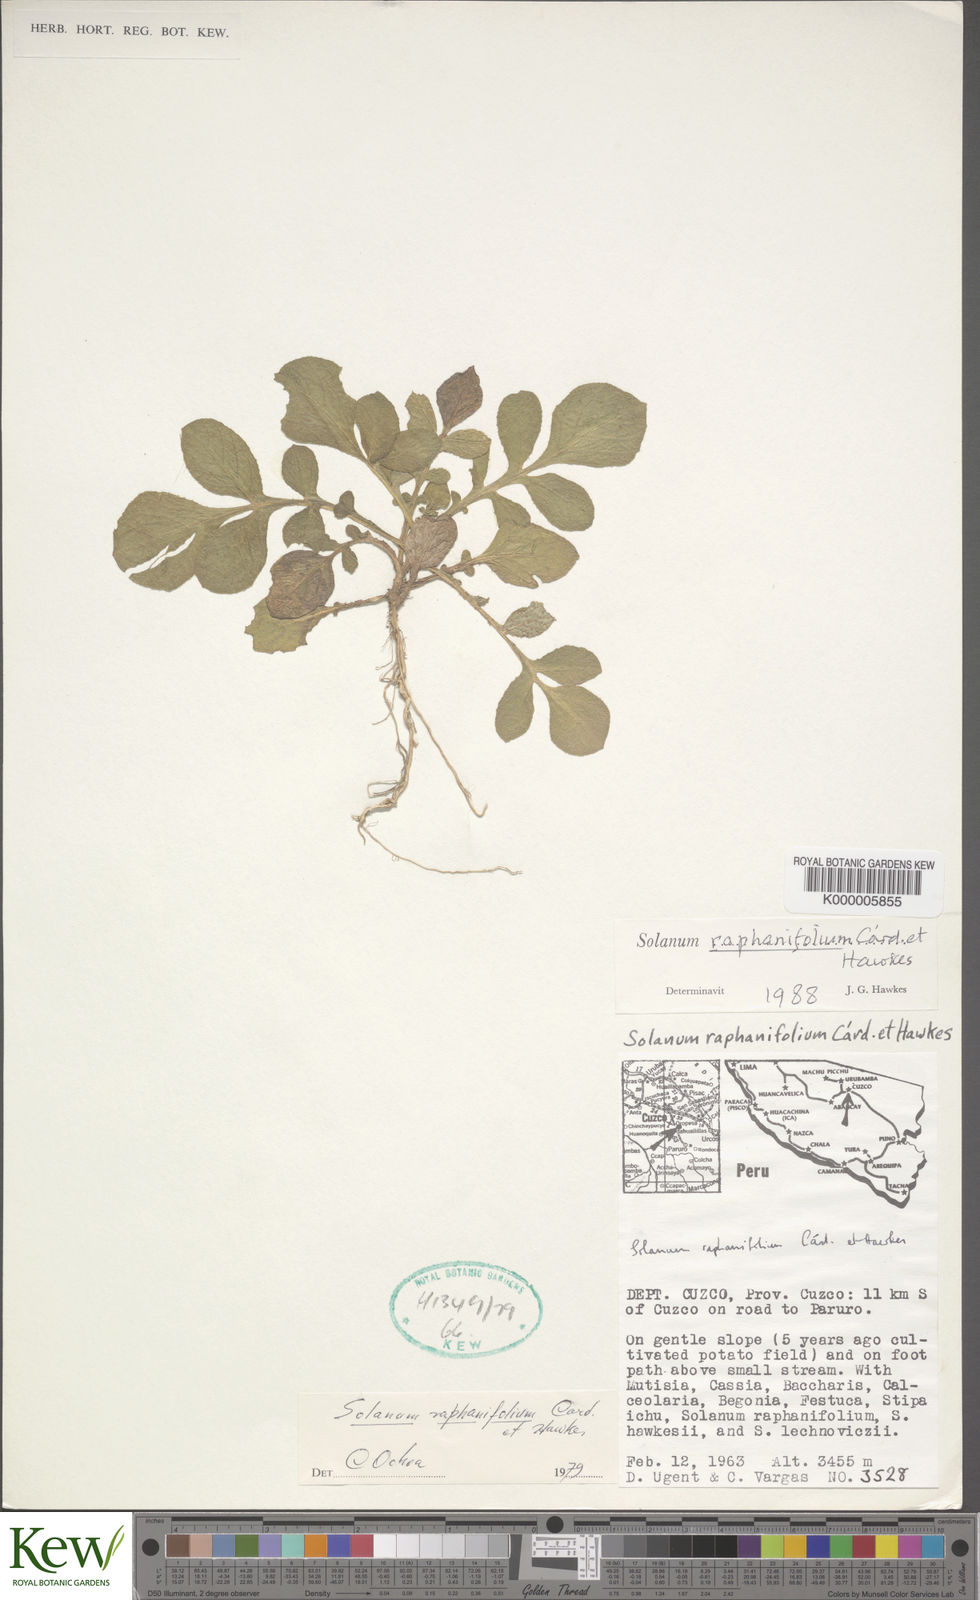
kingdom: Plantae
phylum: Tracheophyta
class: Magnoliopsida
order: Solanales
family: Solanaceae
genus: Solanum
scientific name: Solanum raphanifolium
